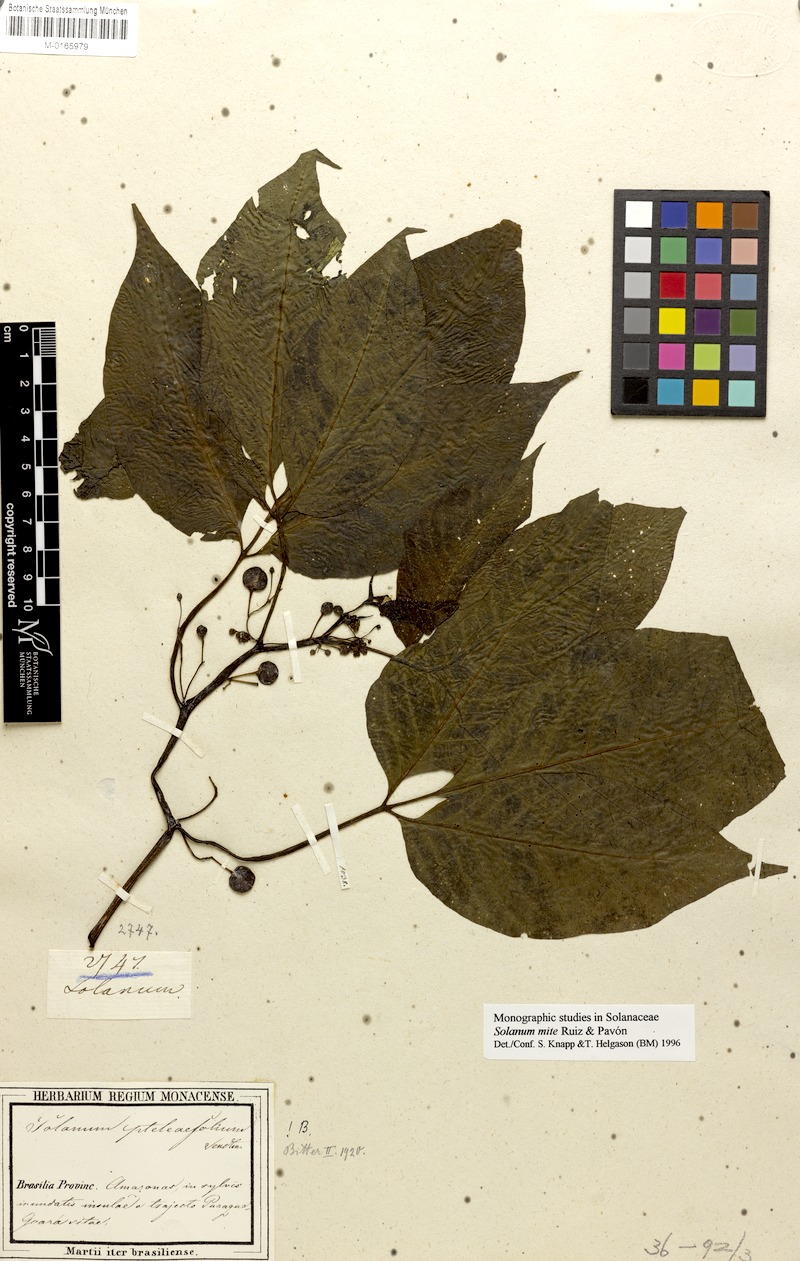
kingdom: Plantae
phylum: Tracheophyta
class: Magnoliopsida
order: Solanales
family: Solanaceae
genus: Solanum
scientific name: Solanum mite
